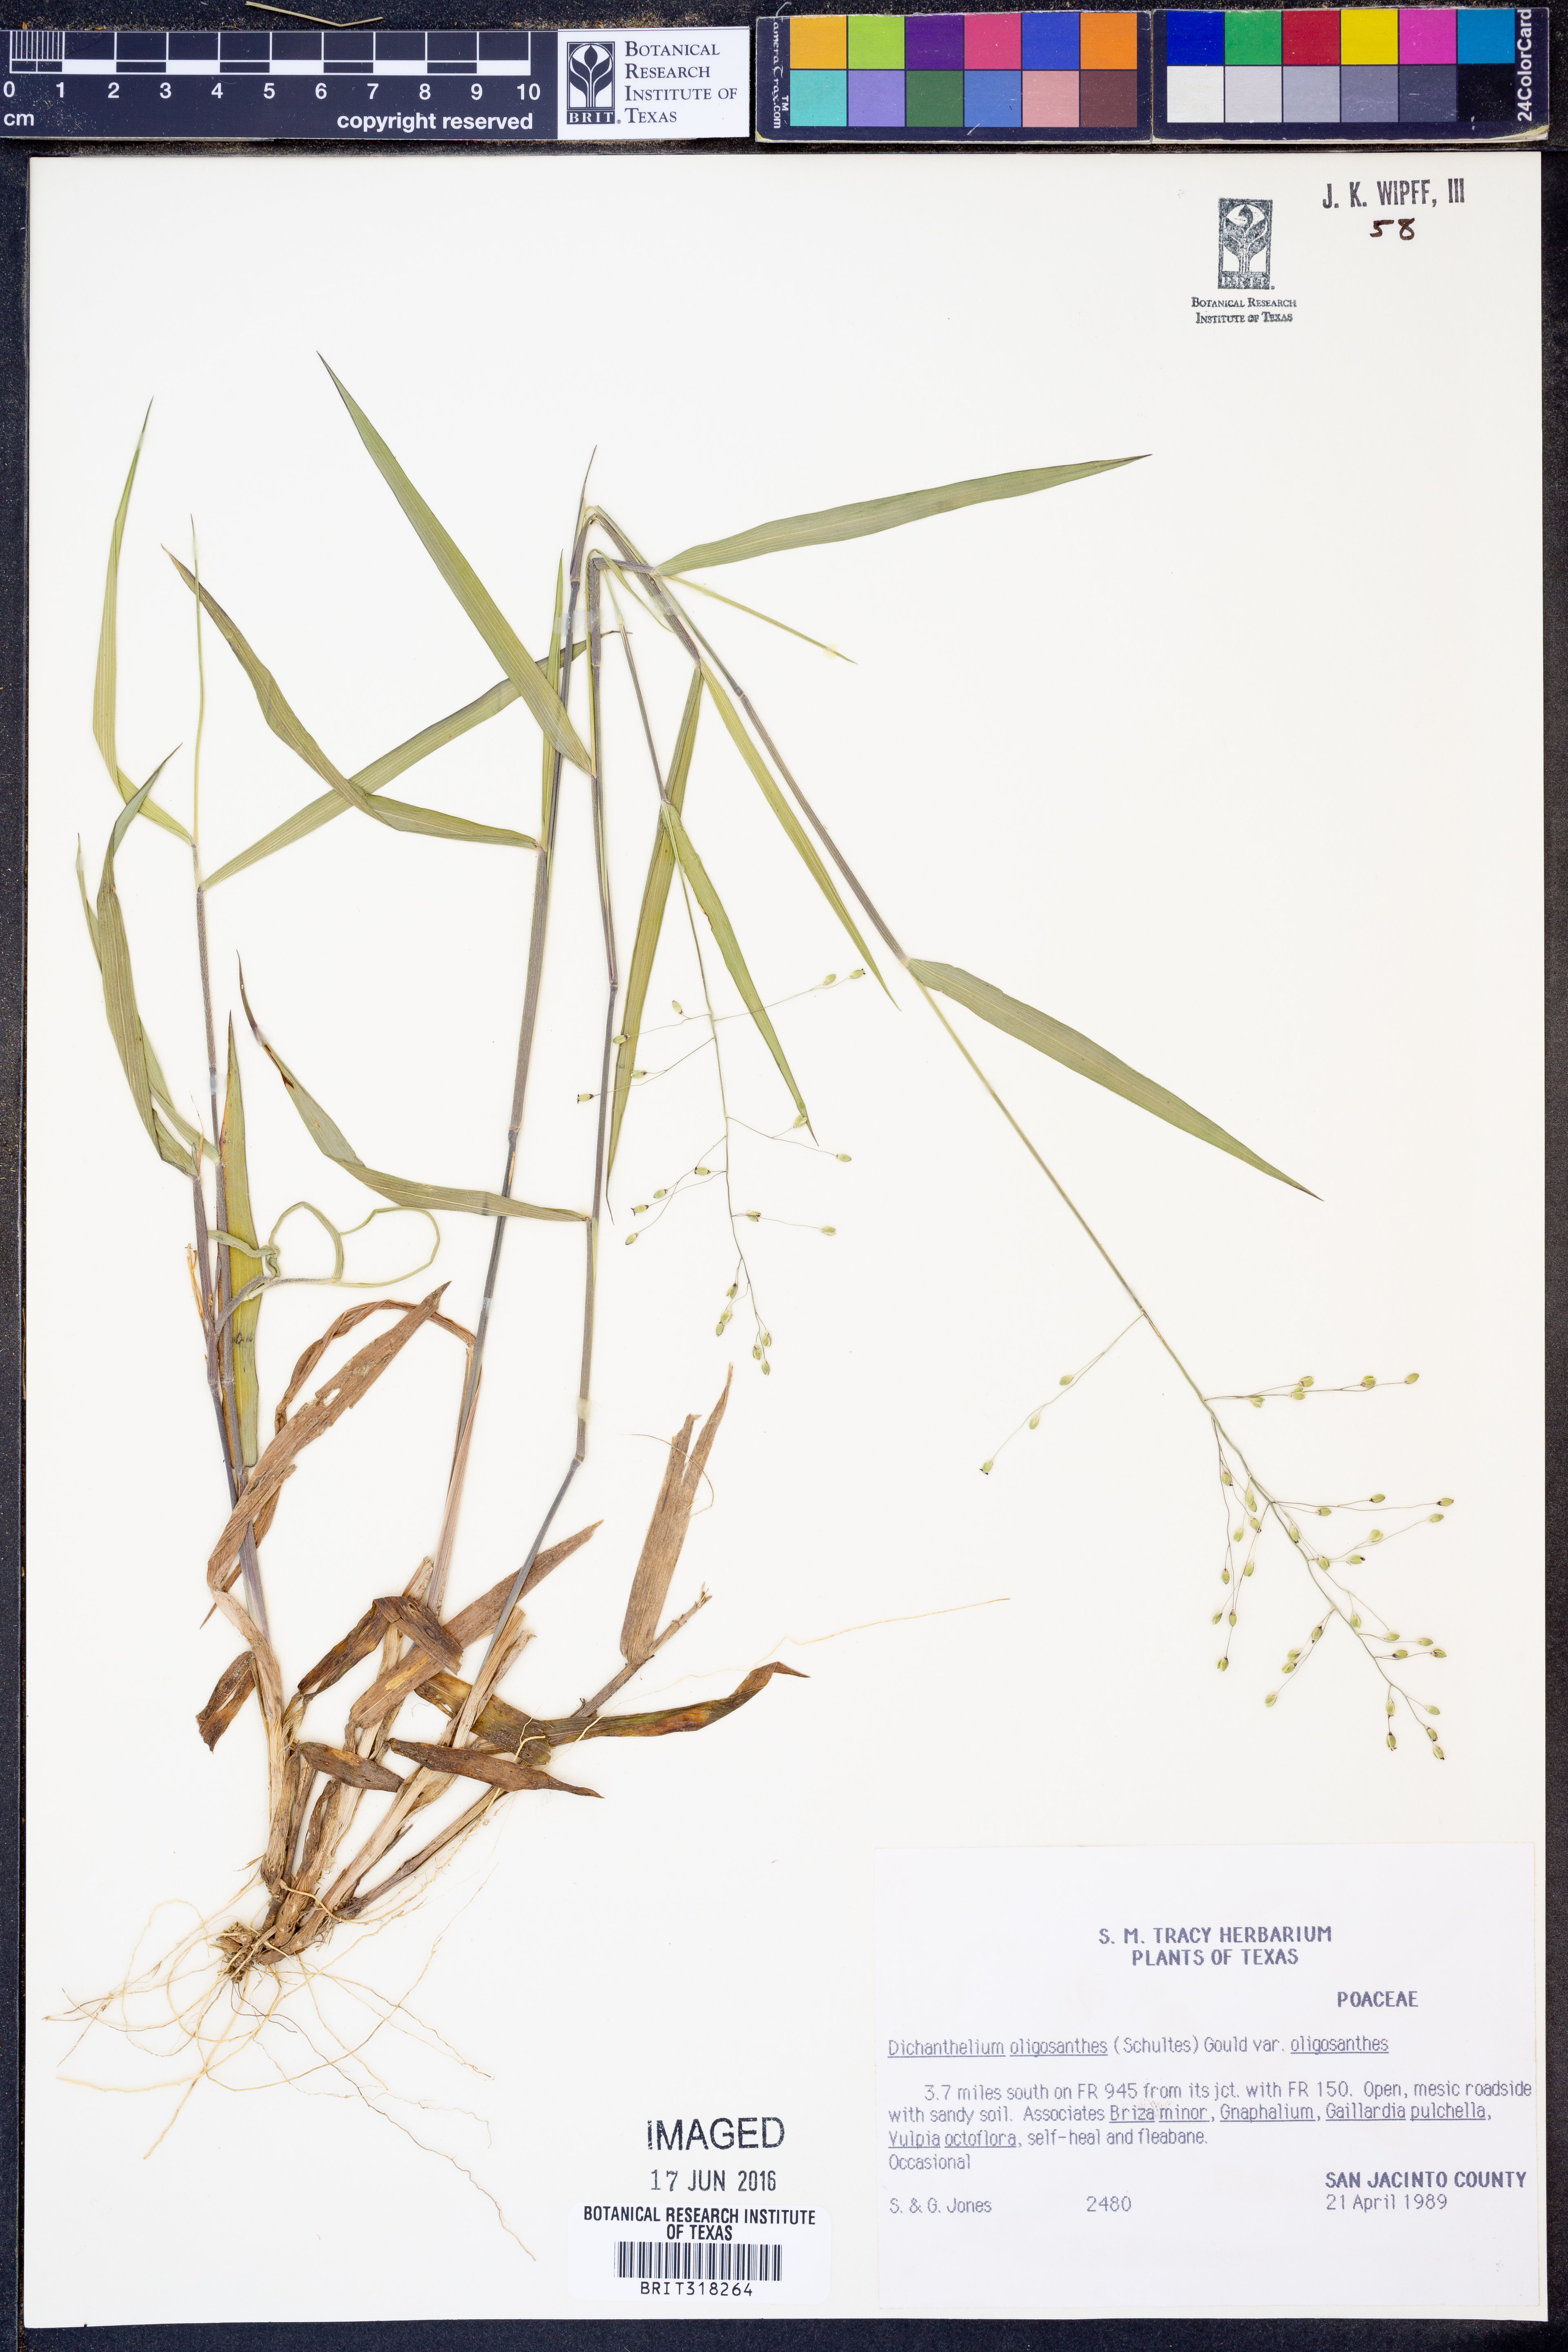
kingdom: Plantae
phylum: Tracheophyta
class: Liliopsida
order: Poales
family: Poaceae
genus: Dichanthelium
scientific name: Dichanthelium oligosanthes
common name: Few-anther obscuregrass
